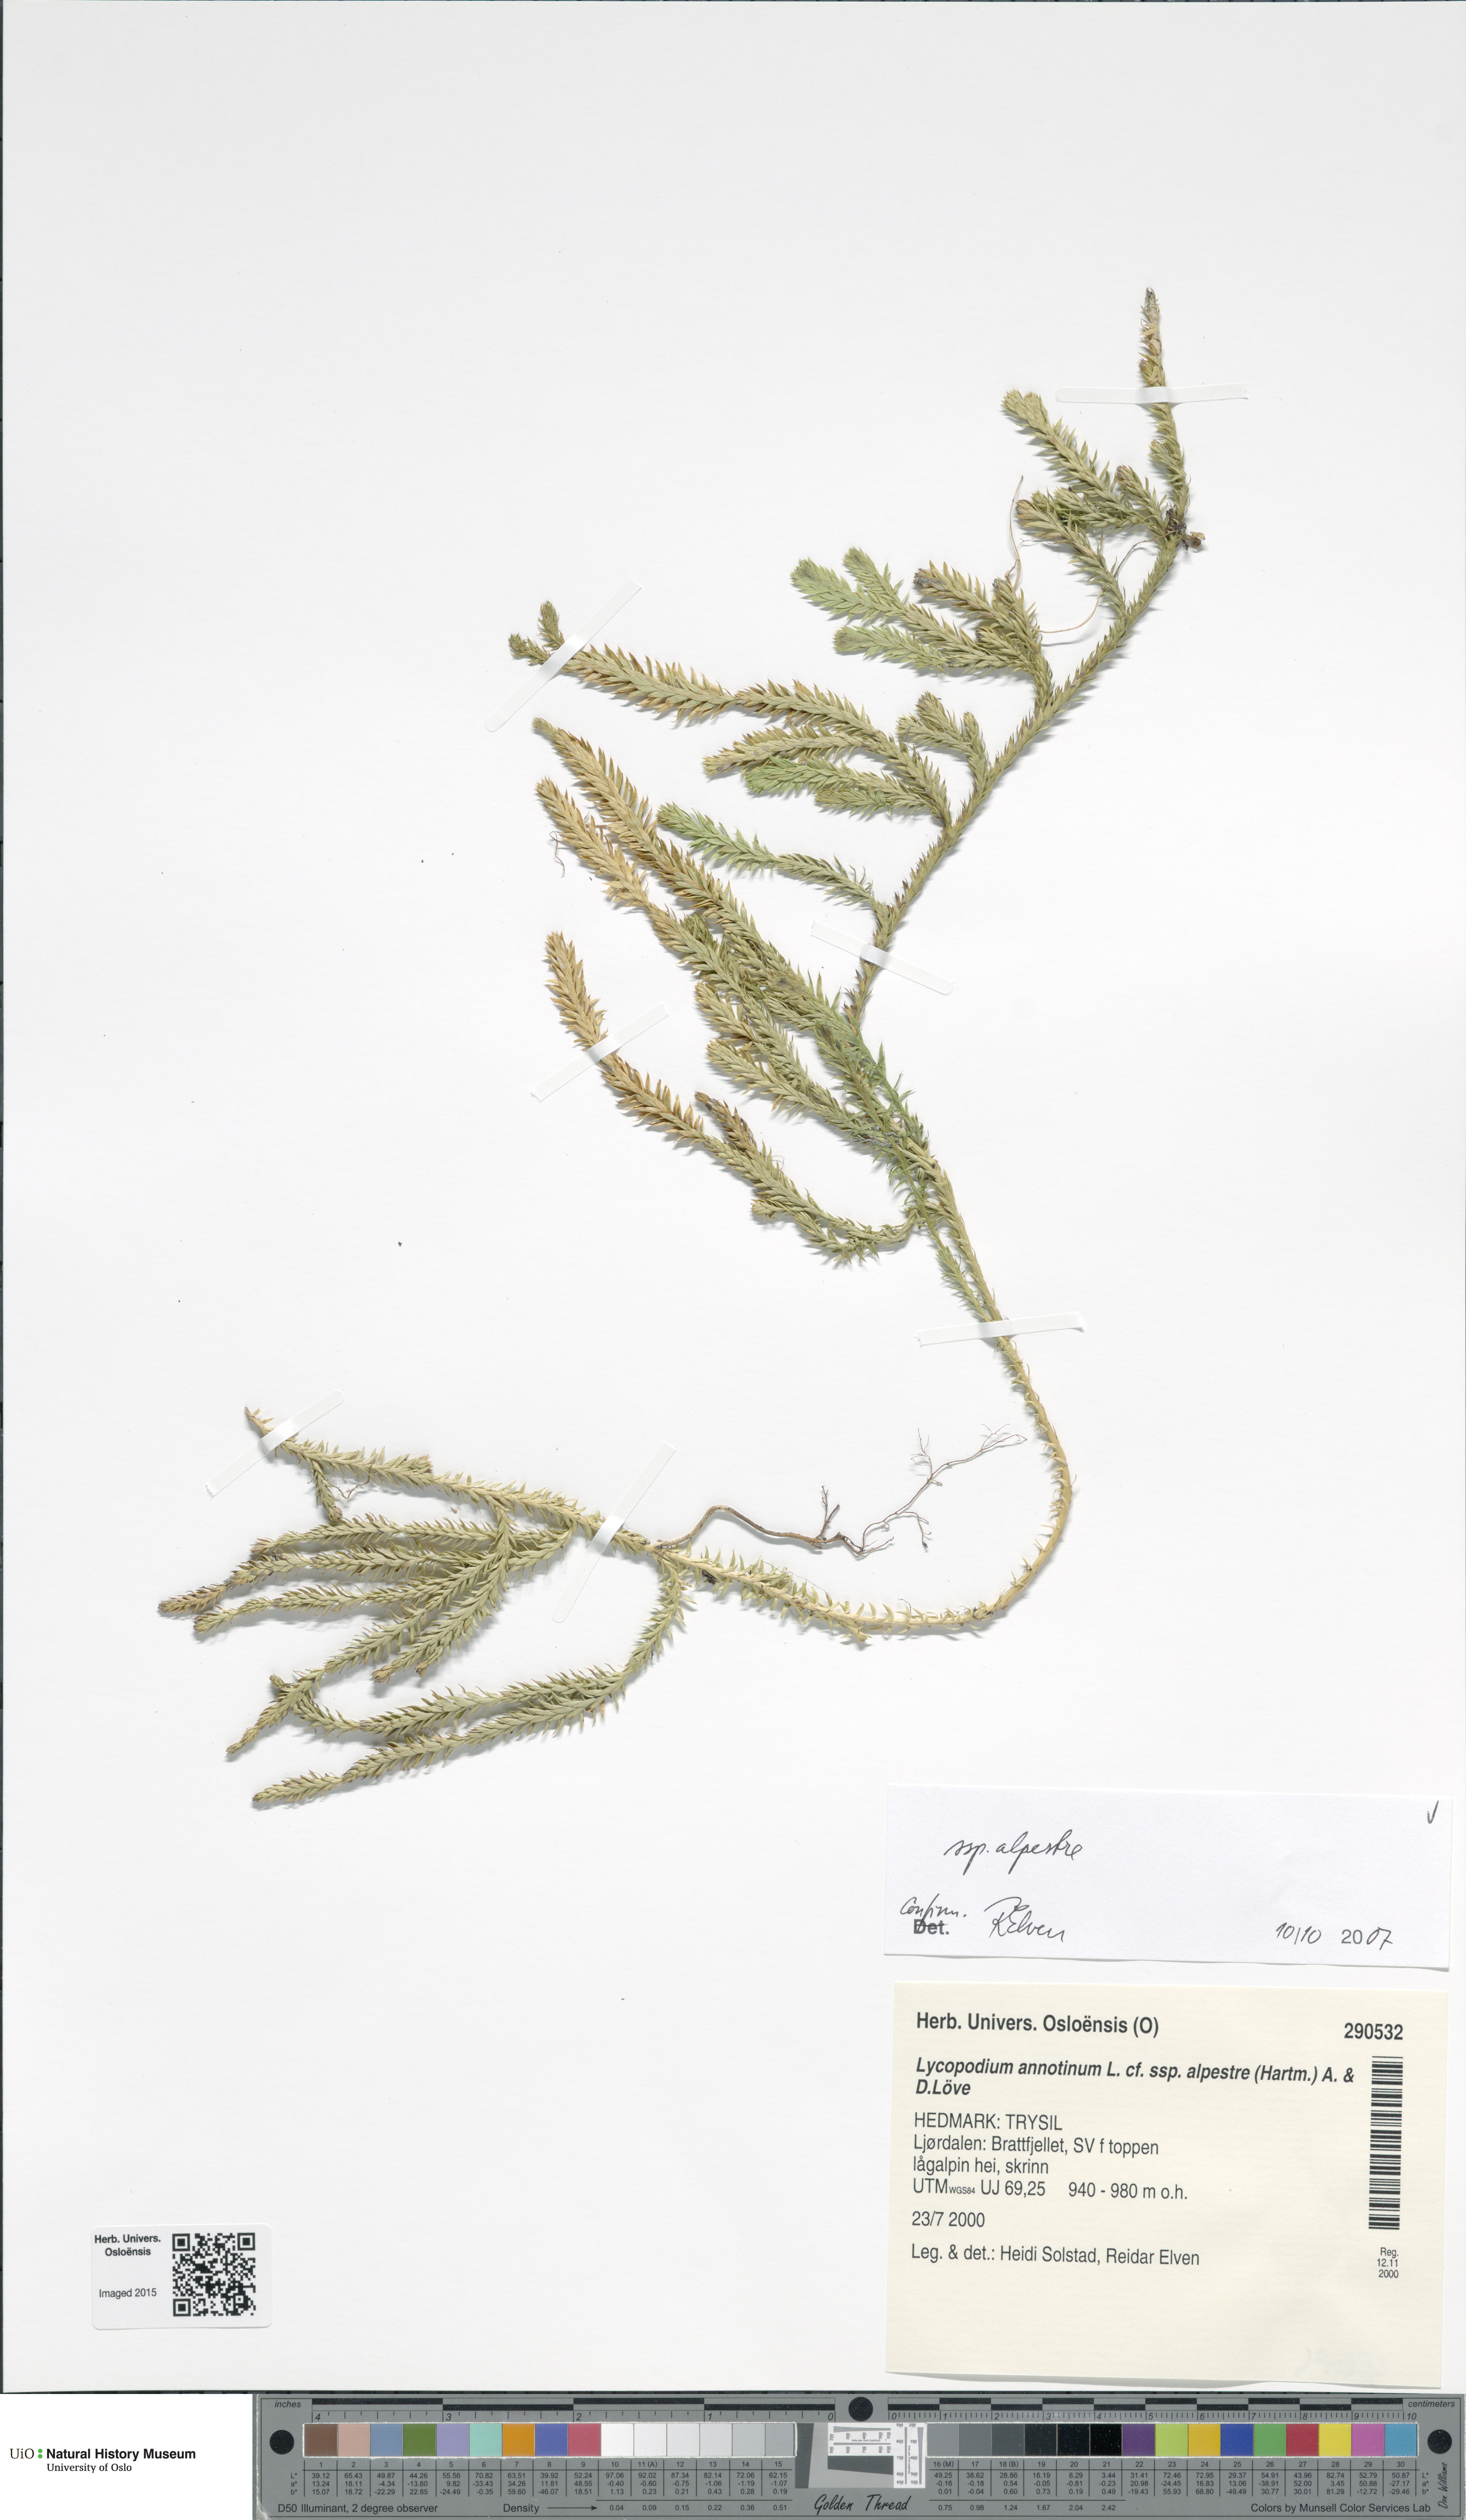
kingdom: Plantae
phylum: Tracheophyta
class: Lycopodiopsida
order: Lycopodiales
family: Lycopodiaceae
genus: Spinulum
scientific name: Spinulum annotinum
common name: Interrupted club-moss
